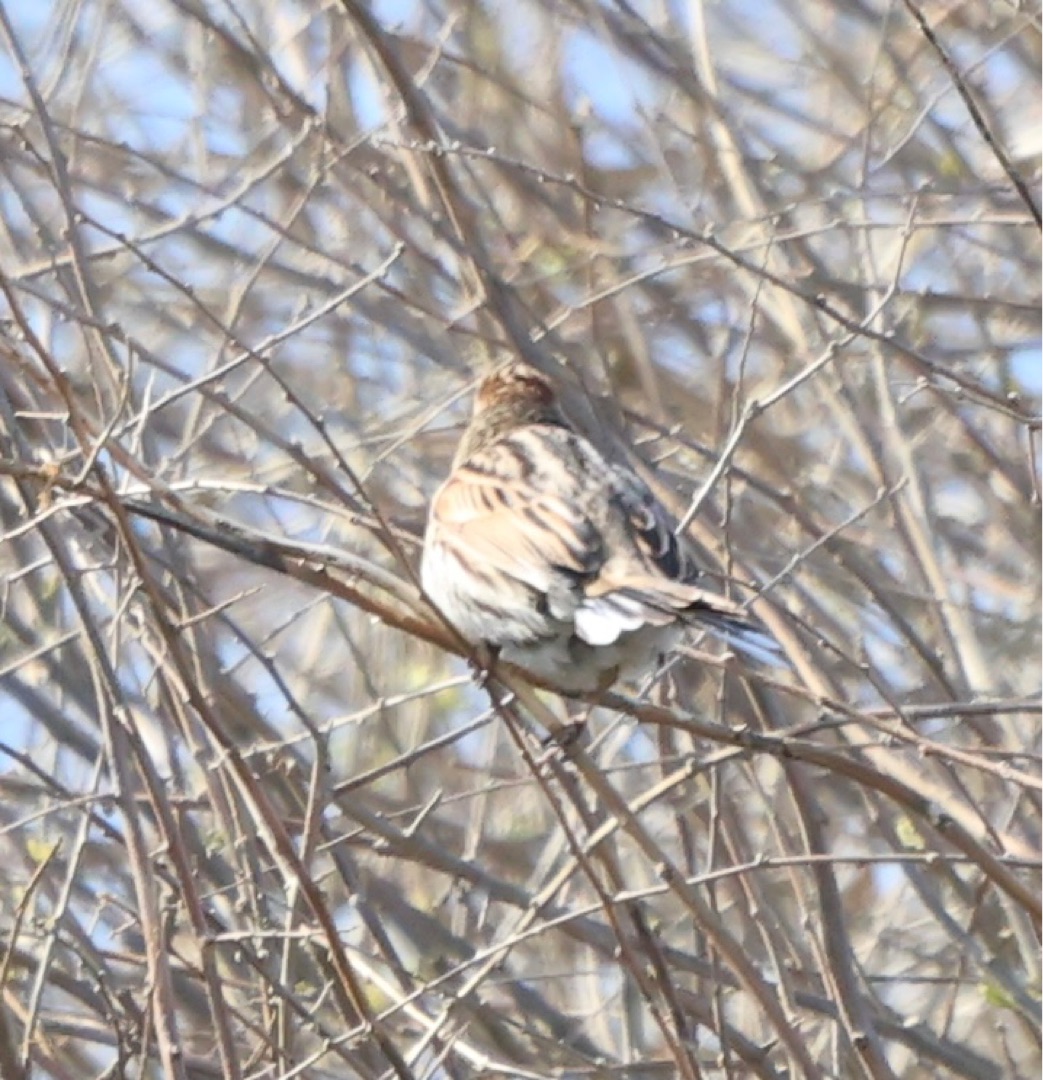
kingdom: Animalia
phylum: Chordata
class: Aves
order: Passeriformes
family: Emberizidae
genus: Emberiza
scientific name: Emberiza schoeniclus
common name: Rørspurv
